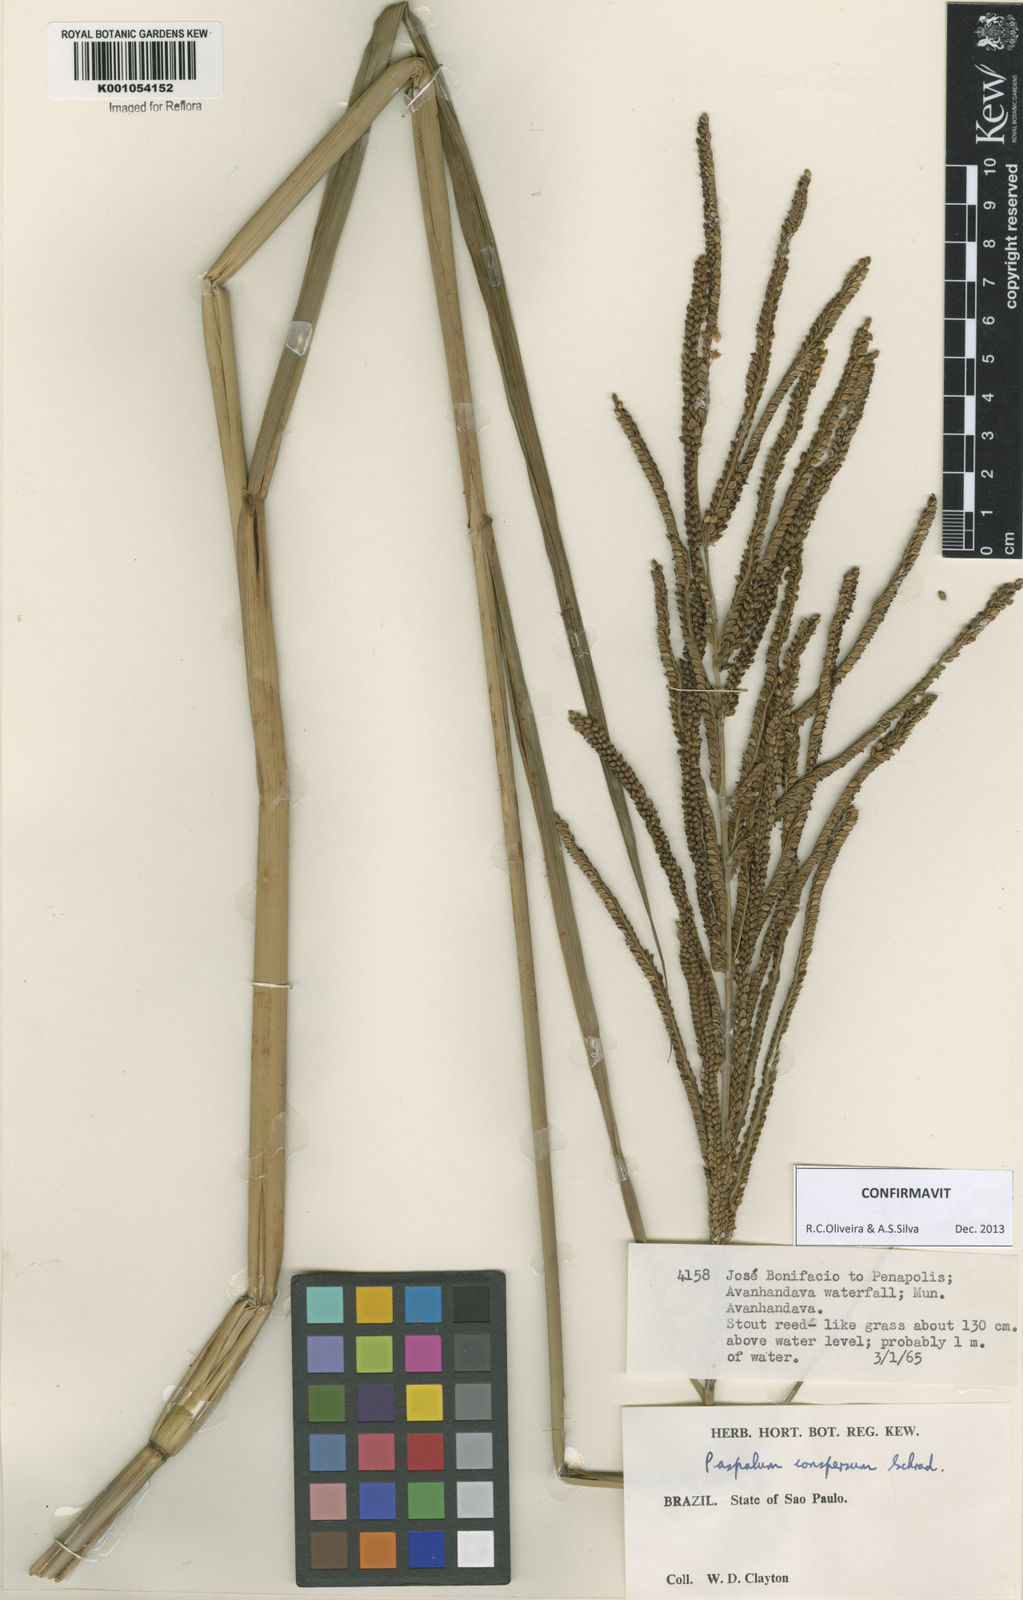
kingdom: Plantae
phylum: Tracheophyta
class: Liliopsida
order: Poales
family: Poaceae
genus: Paspalum
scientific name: Paspalum conspersum
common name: Scattered paspalum
